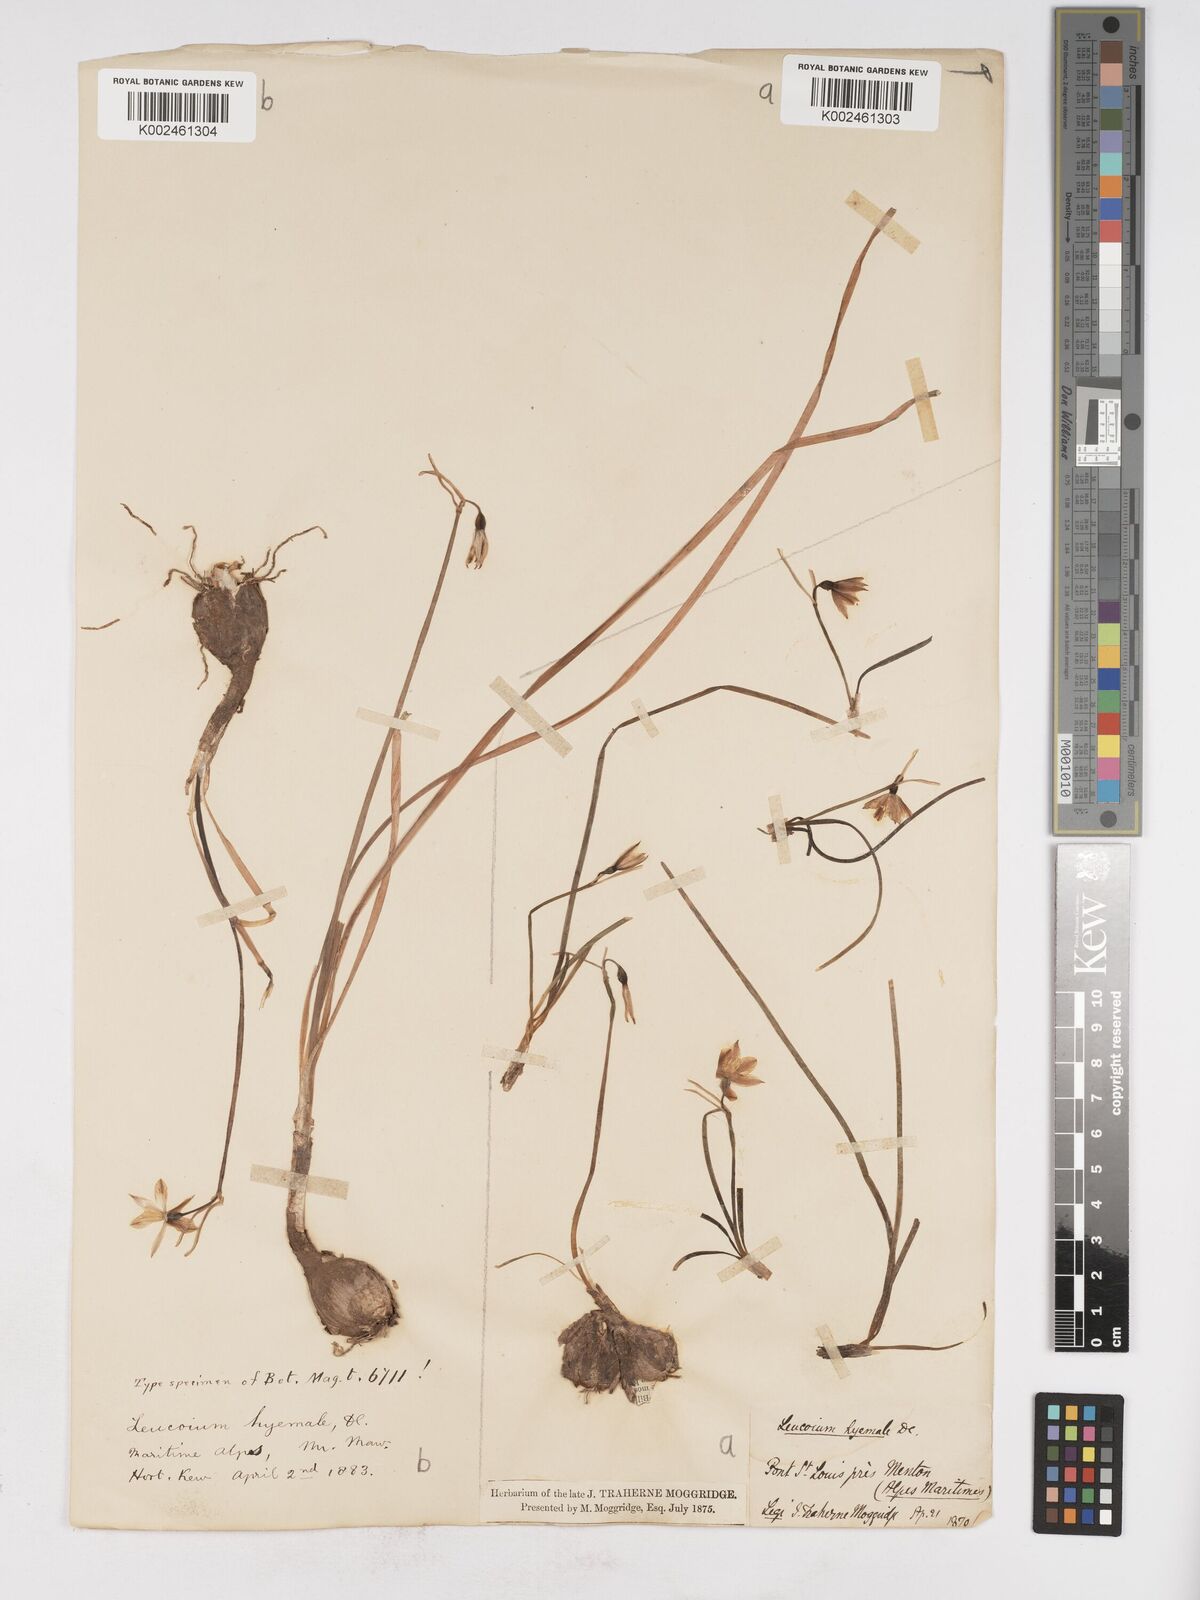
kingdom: Plantae
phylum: Tracheophyta
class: Liliopsida
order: Asparagales
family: Amaryllidaceae
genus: Acis
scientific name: Acis nicaeensis
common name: French snowflake
